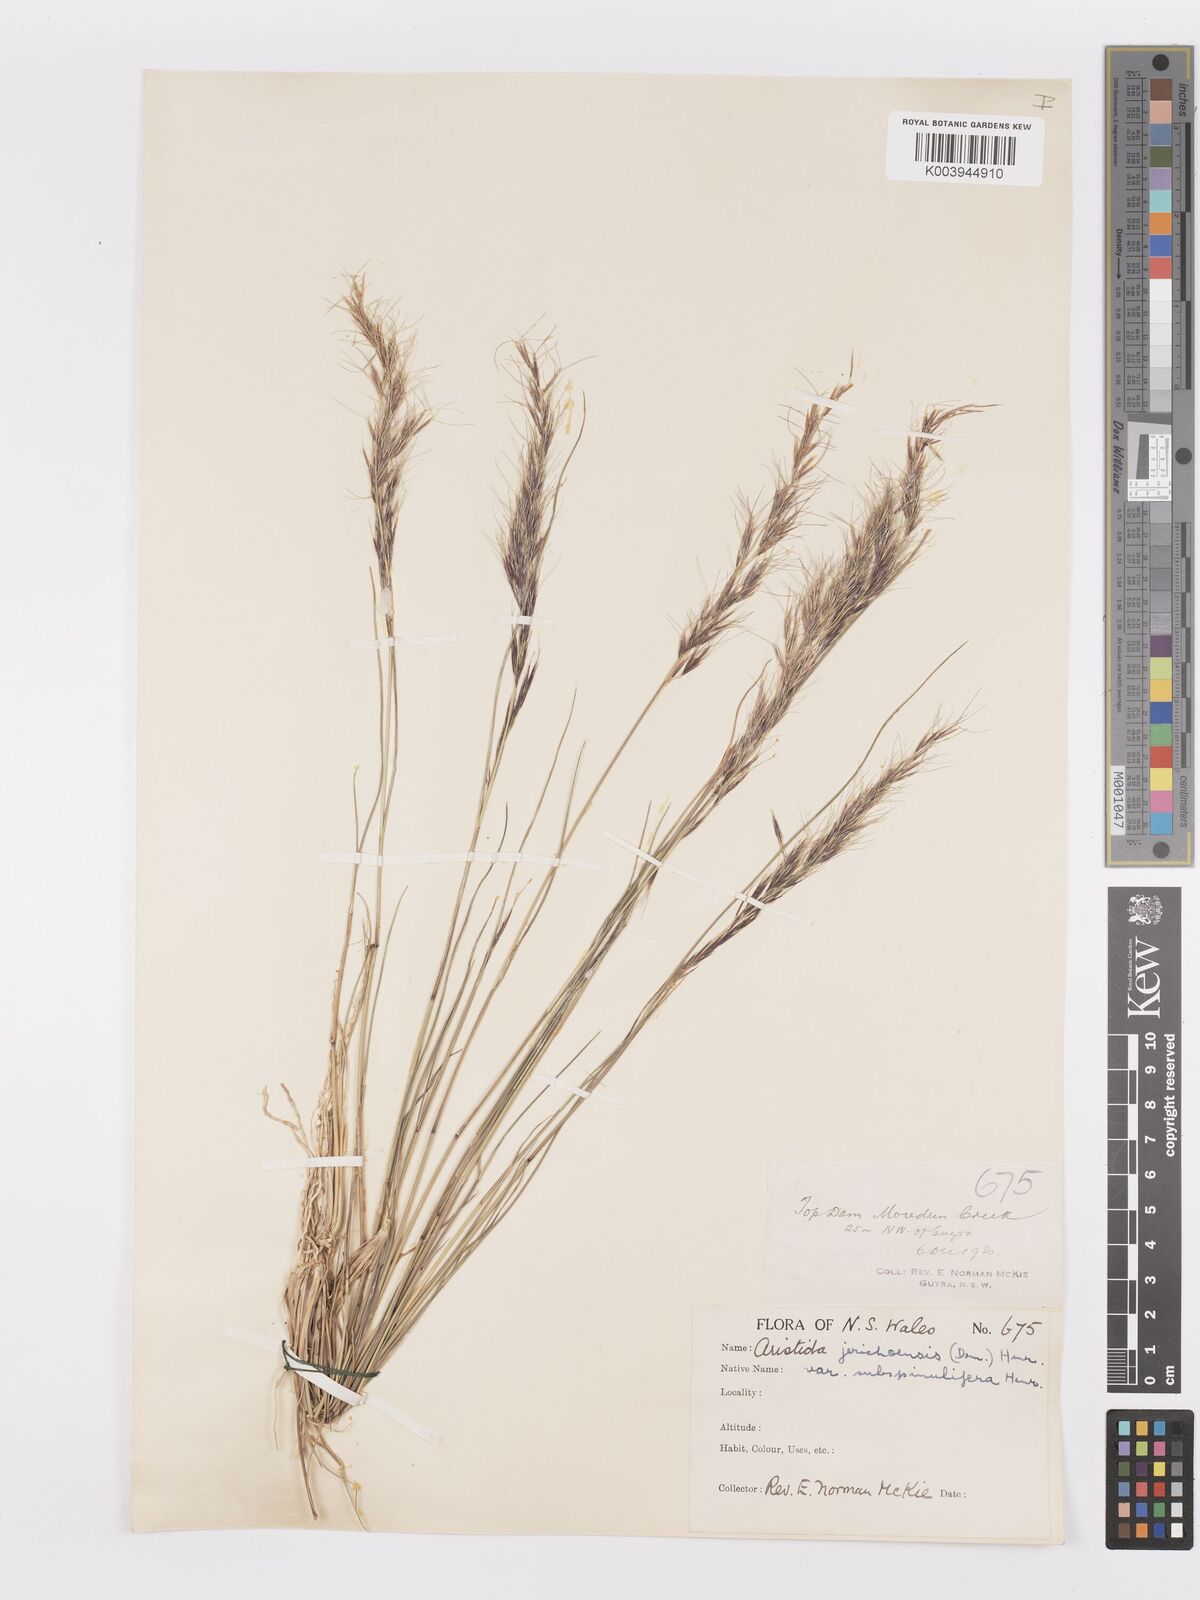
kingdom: Plantae
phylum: Tracheophyta
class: Liliopsida
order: Poales
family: Poaceae
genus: Aristida
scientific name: Aristida jerichoensis
